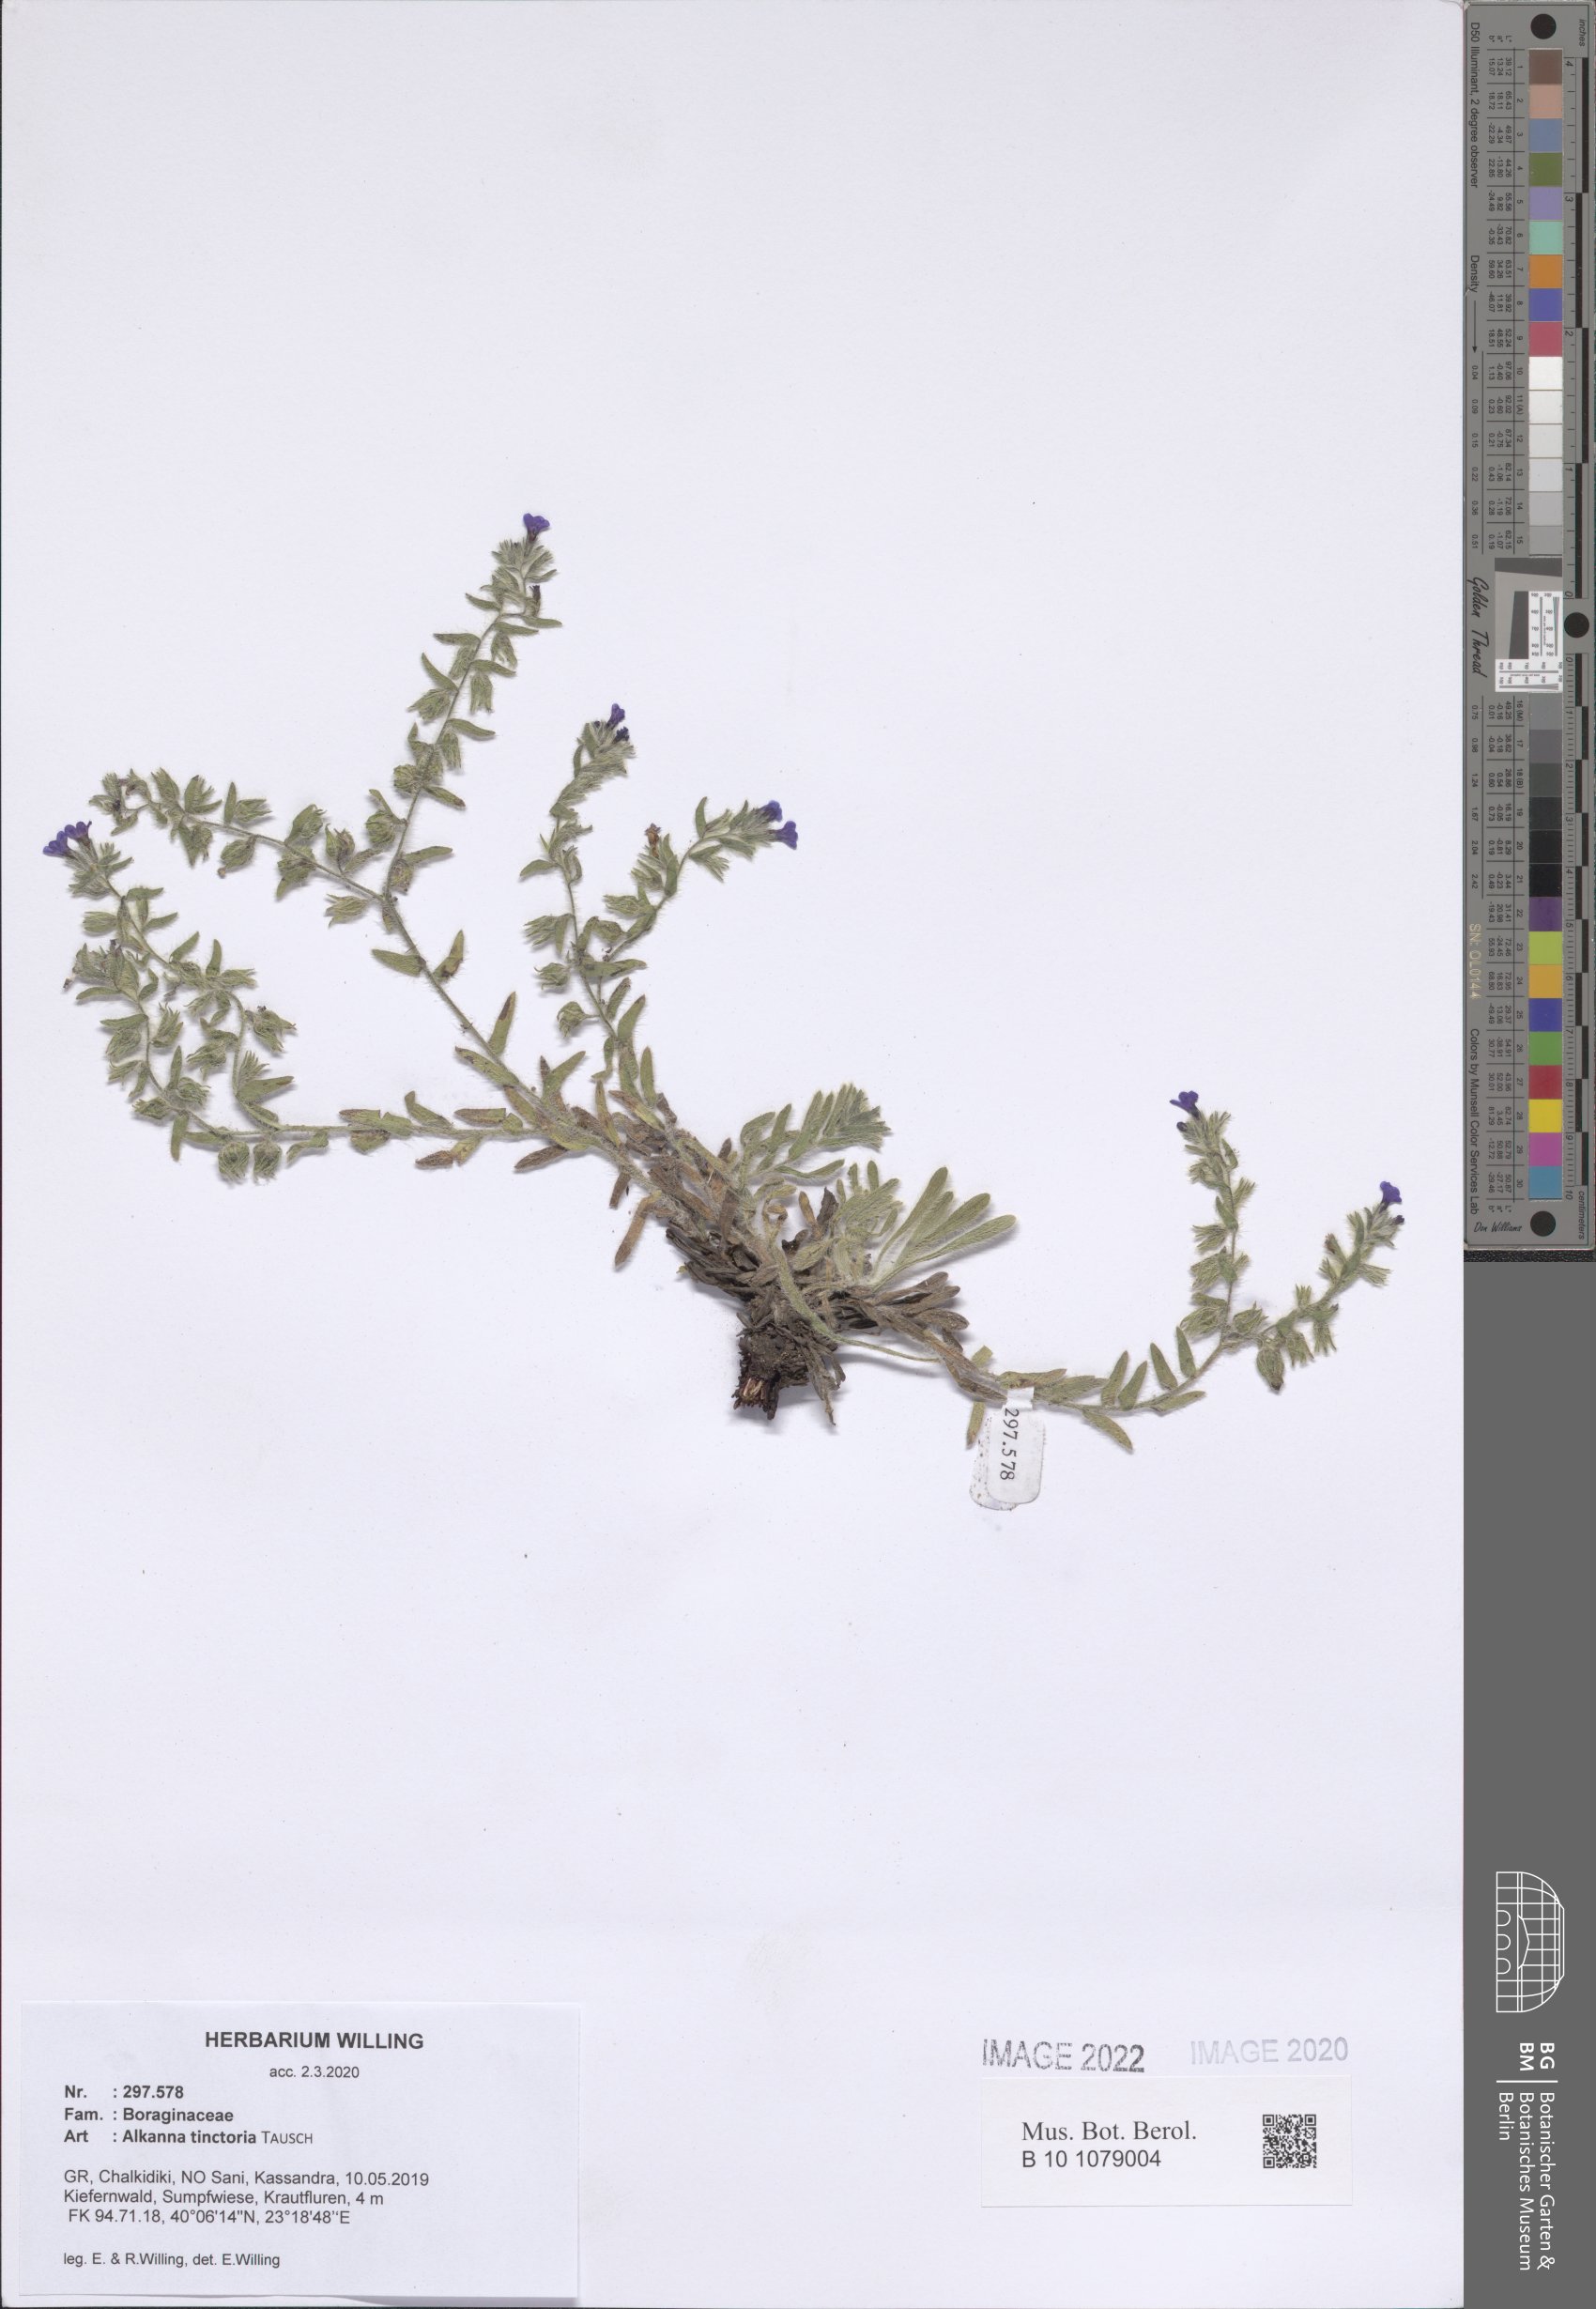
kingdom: Plantae
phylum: Tracheophyta
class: Magnoliopsida
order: Boraginales
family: Boraginaceae
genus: Alkanna
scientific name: Alkanna tinctoria
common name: Dyer's-alkanet
